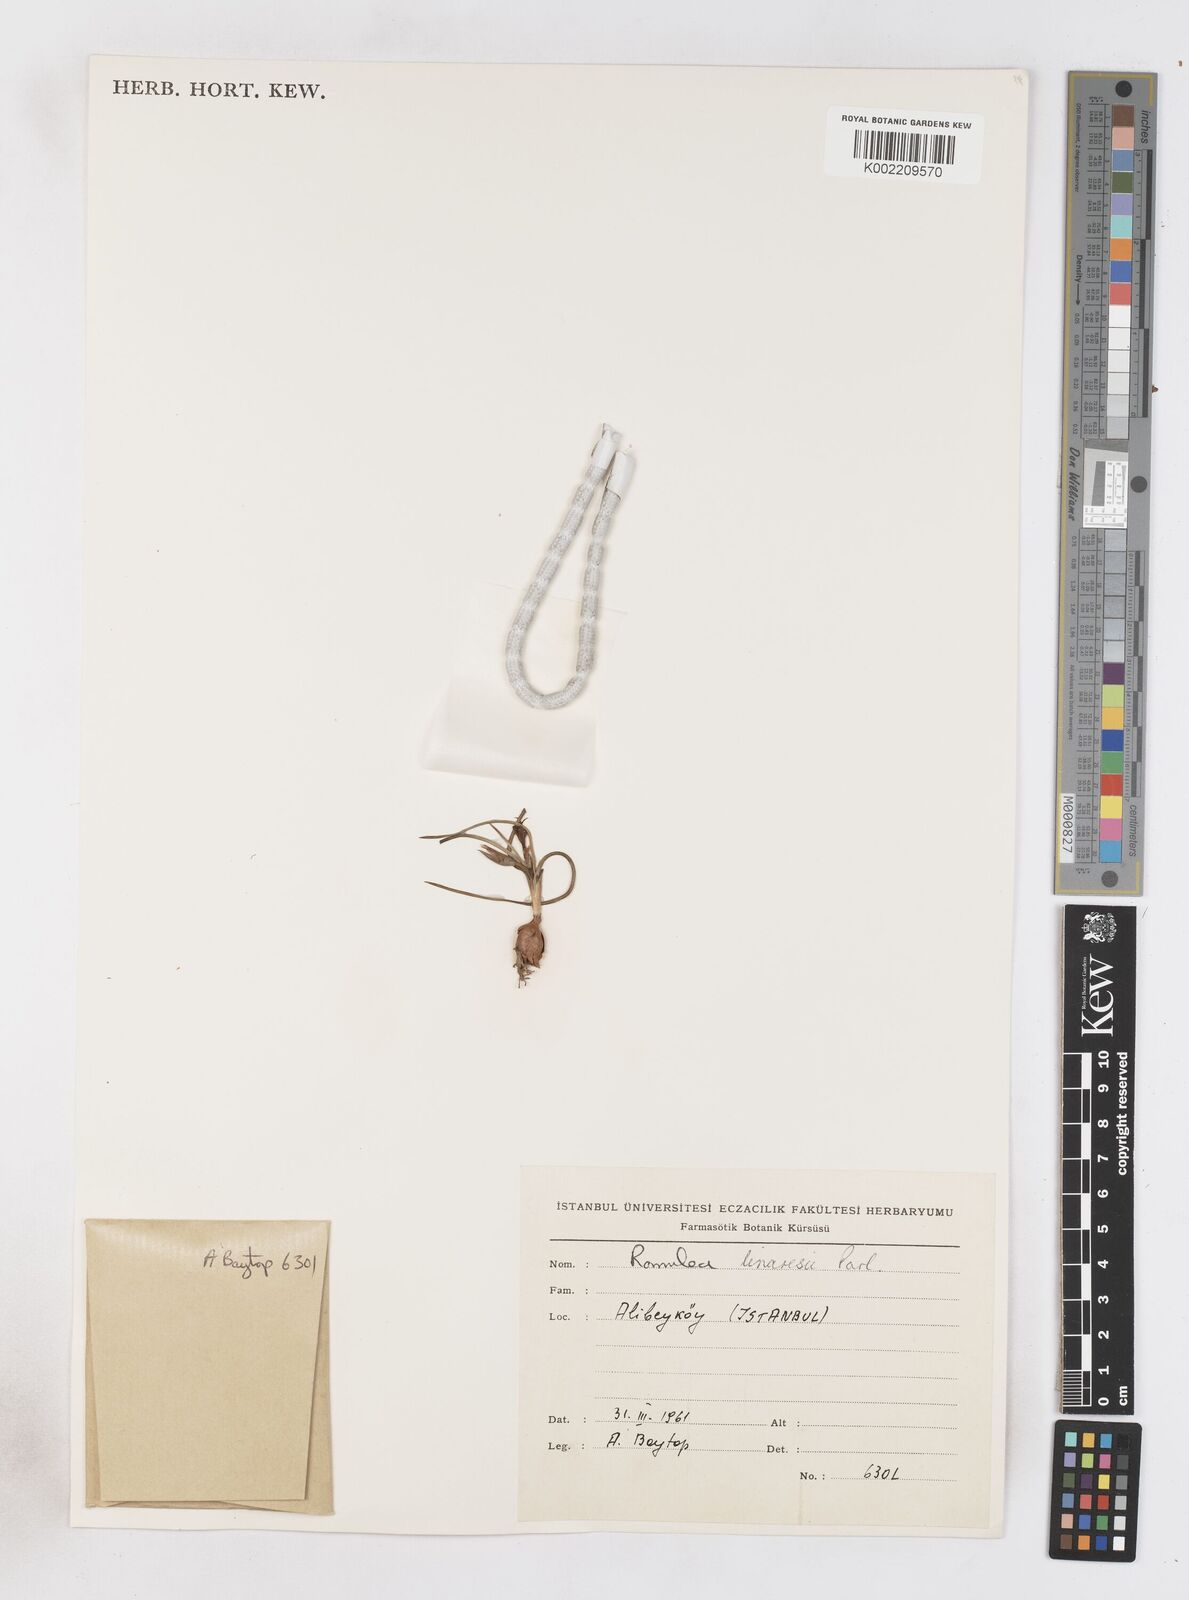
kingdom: Plantae
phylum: Tracheophyta
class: Liliopsida
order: Asparagales
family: Iridaceae
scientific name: Iridaceae
